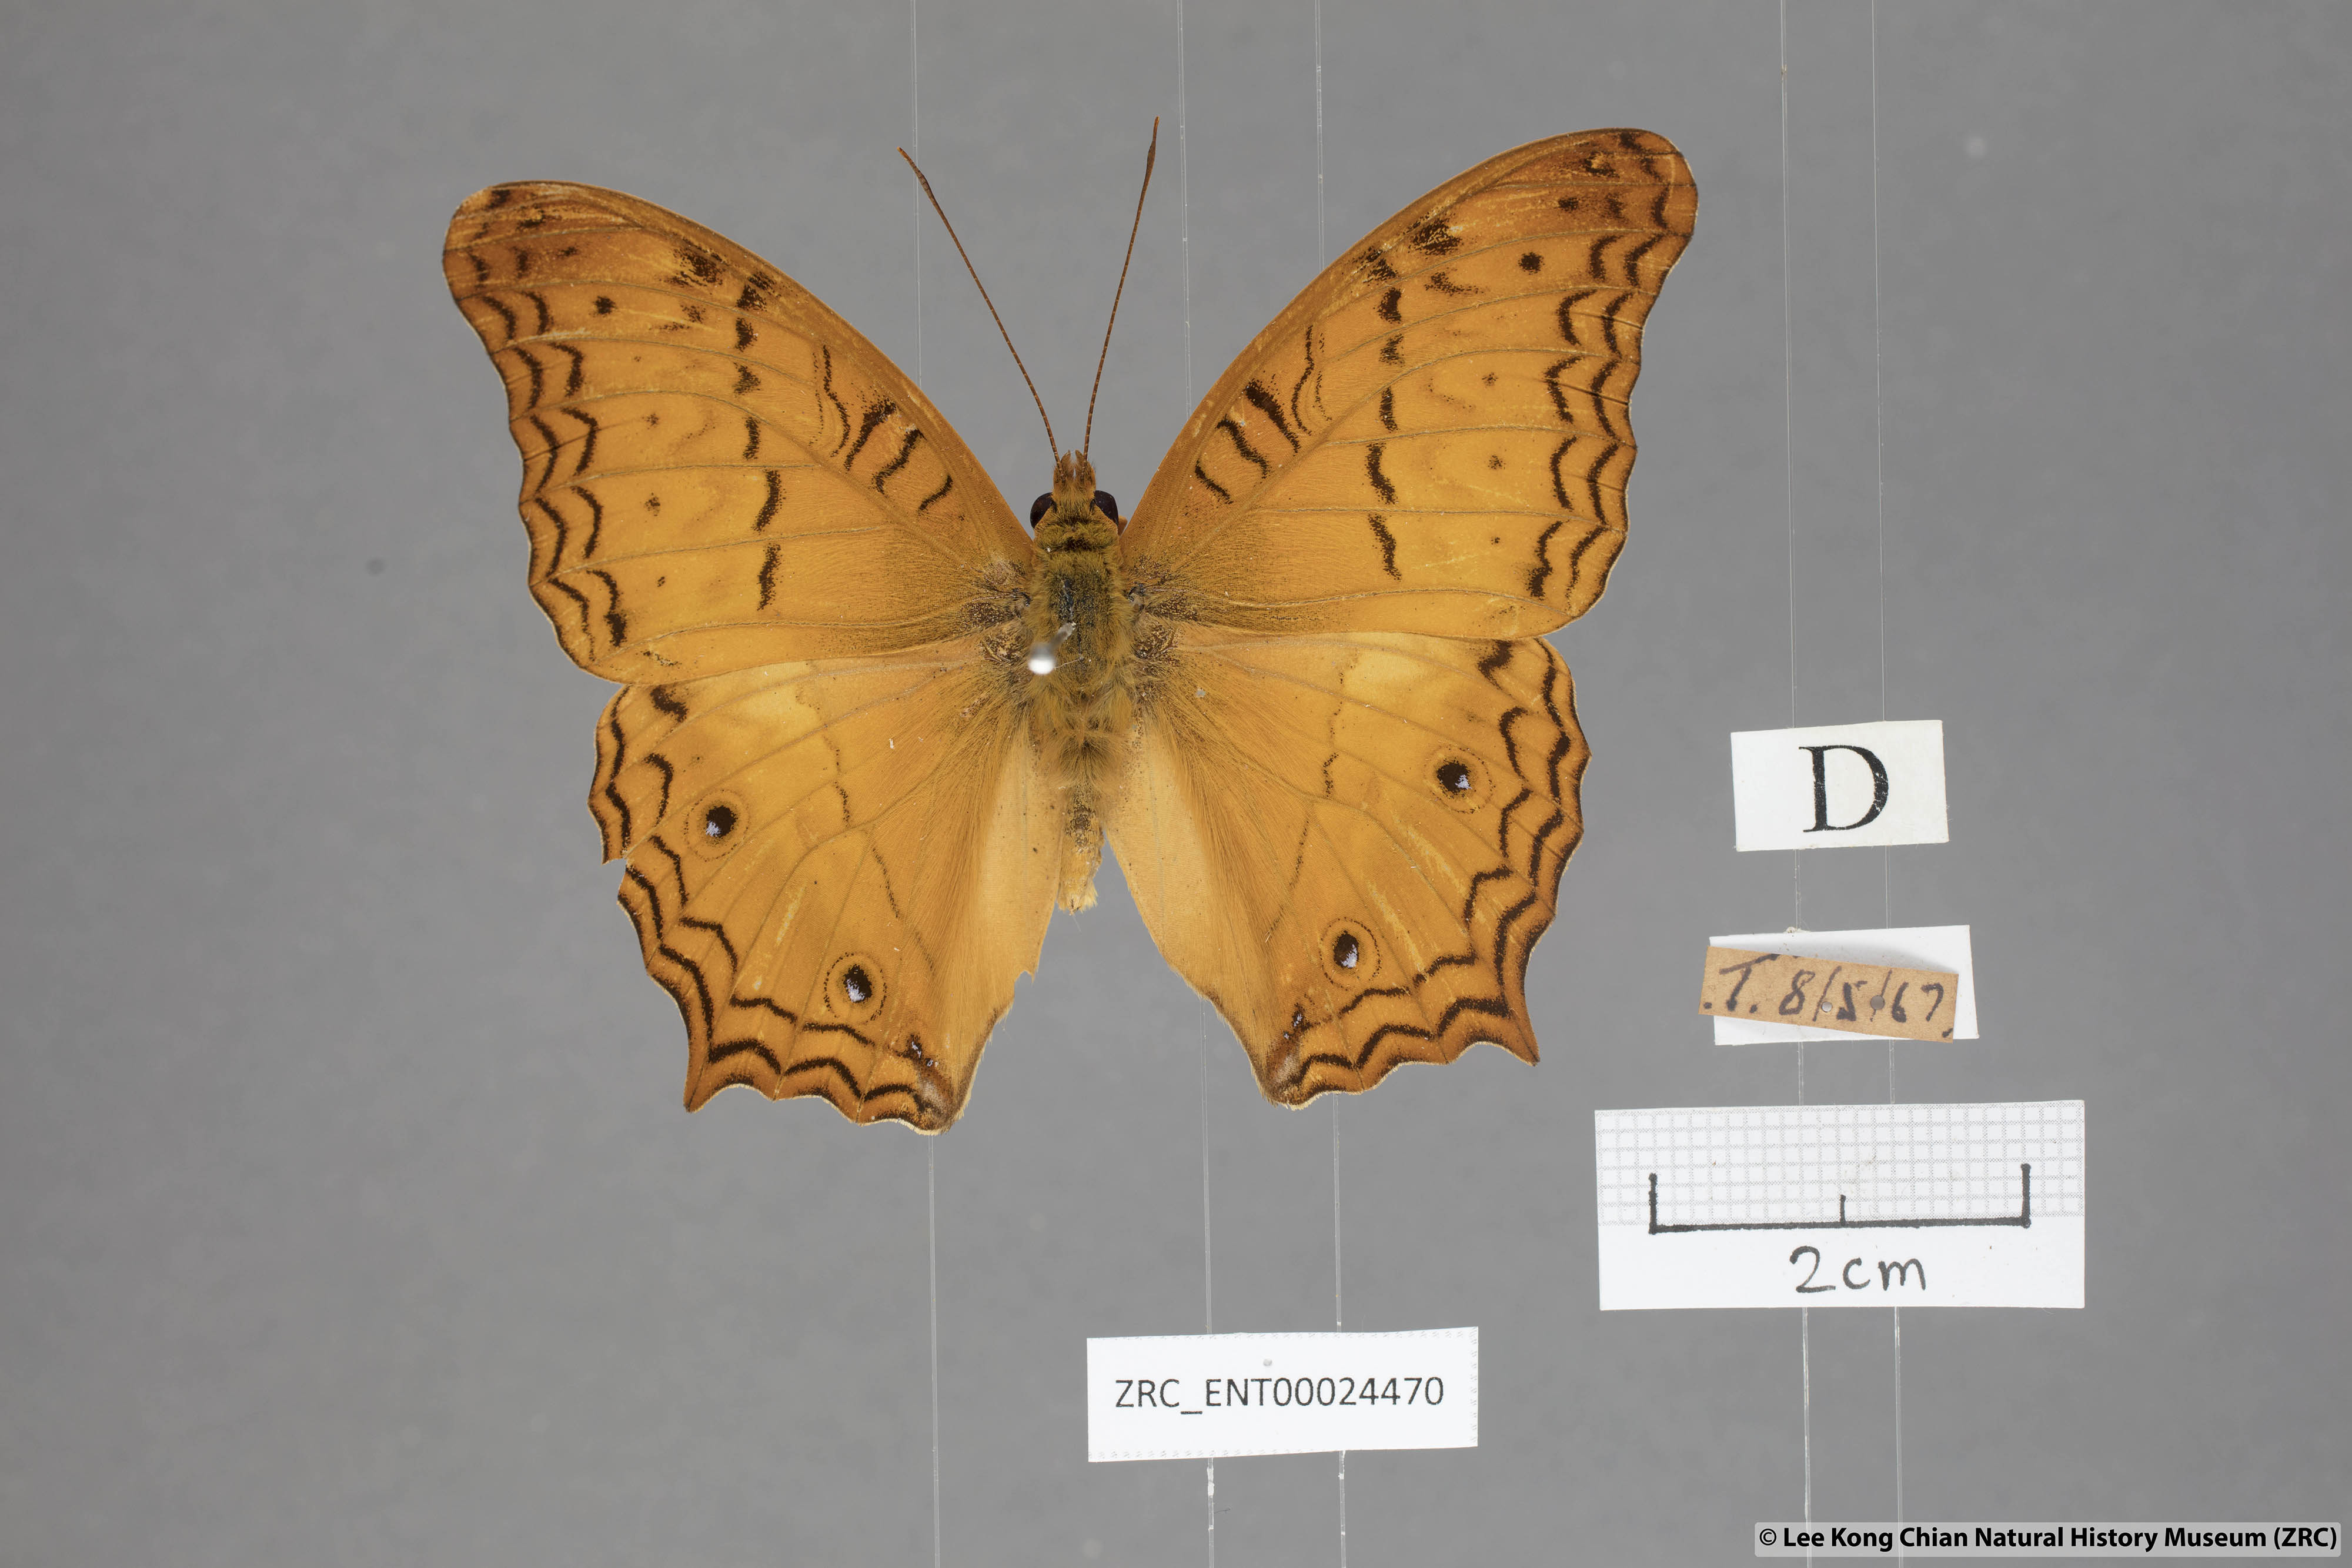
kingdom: Animalia
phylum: Arthropoda
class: Insecta
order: Lepidoptera
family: Nymphalidae
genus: Vindula
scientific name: Vindula deione
